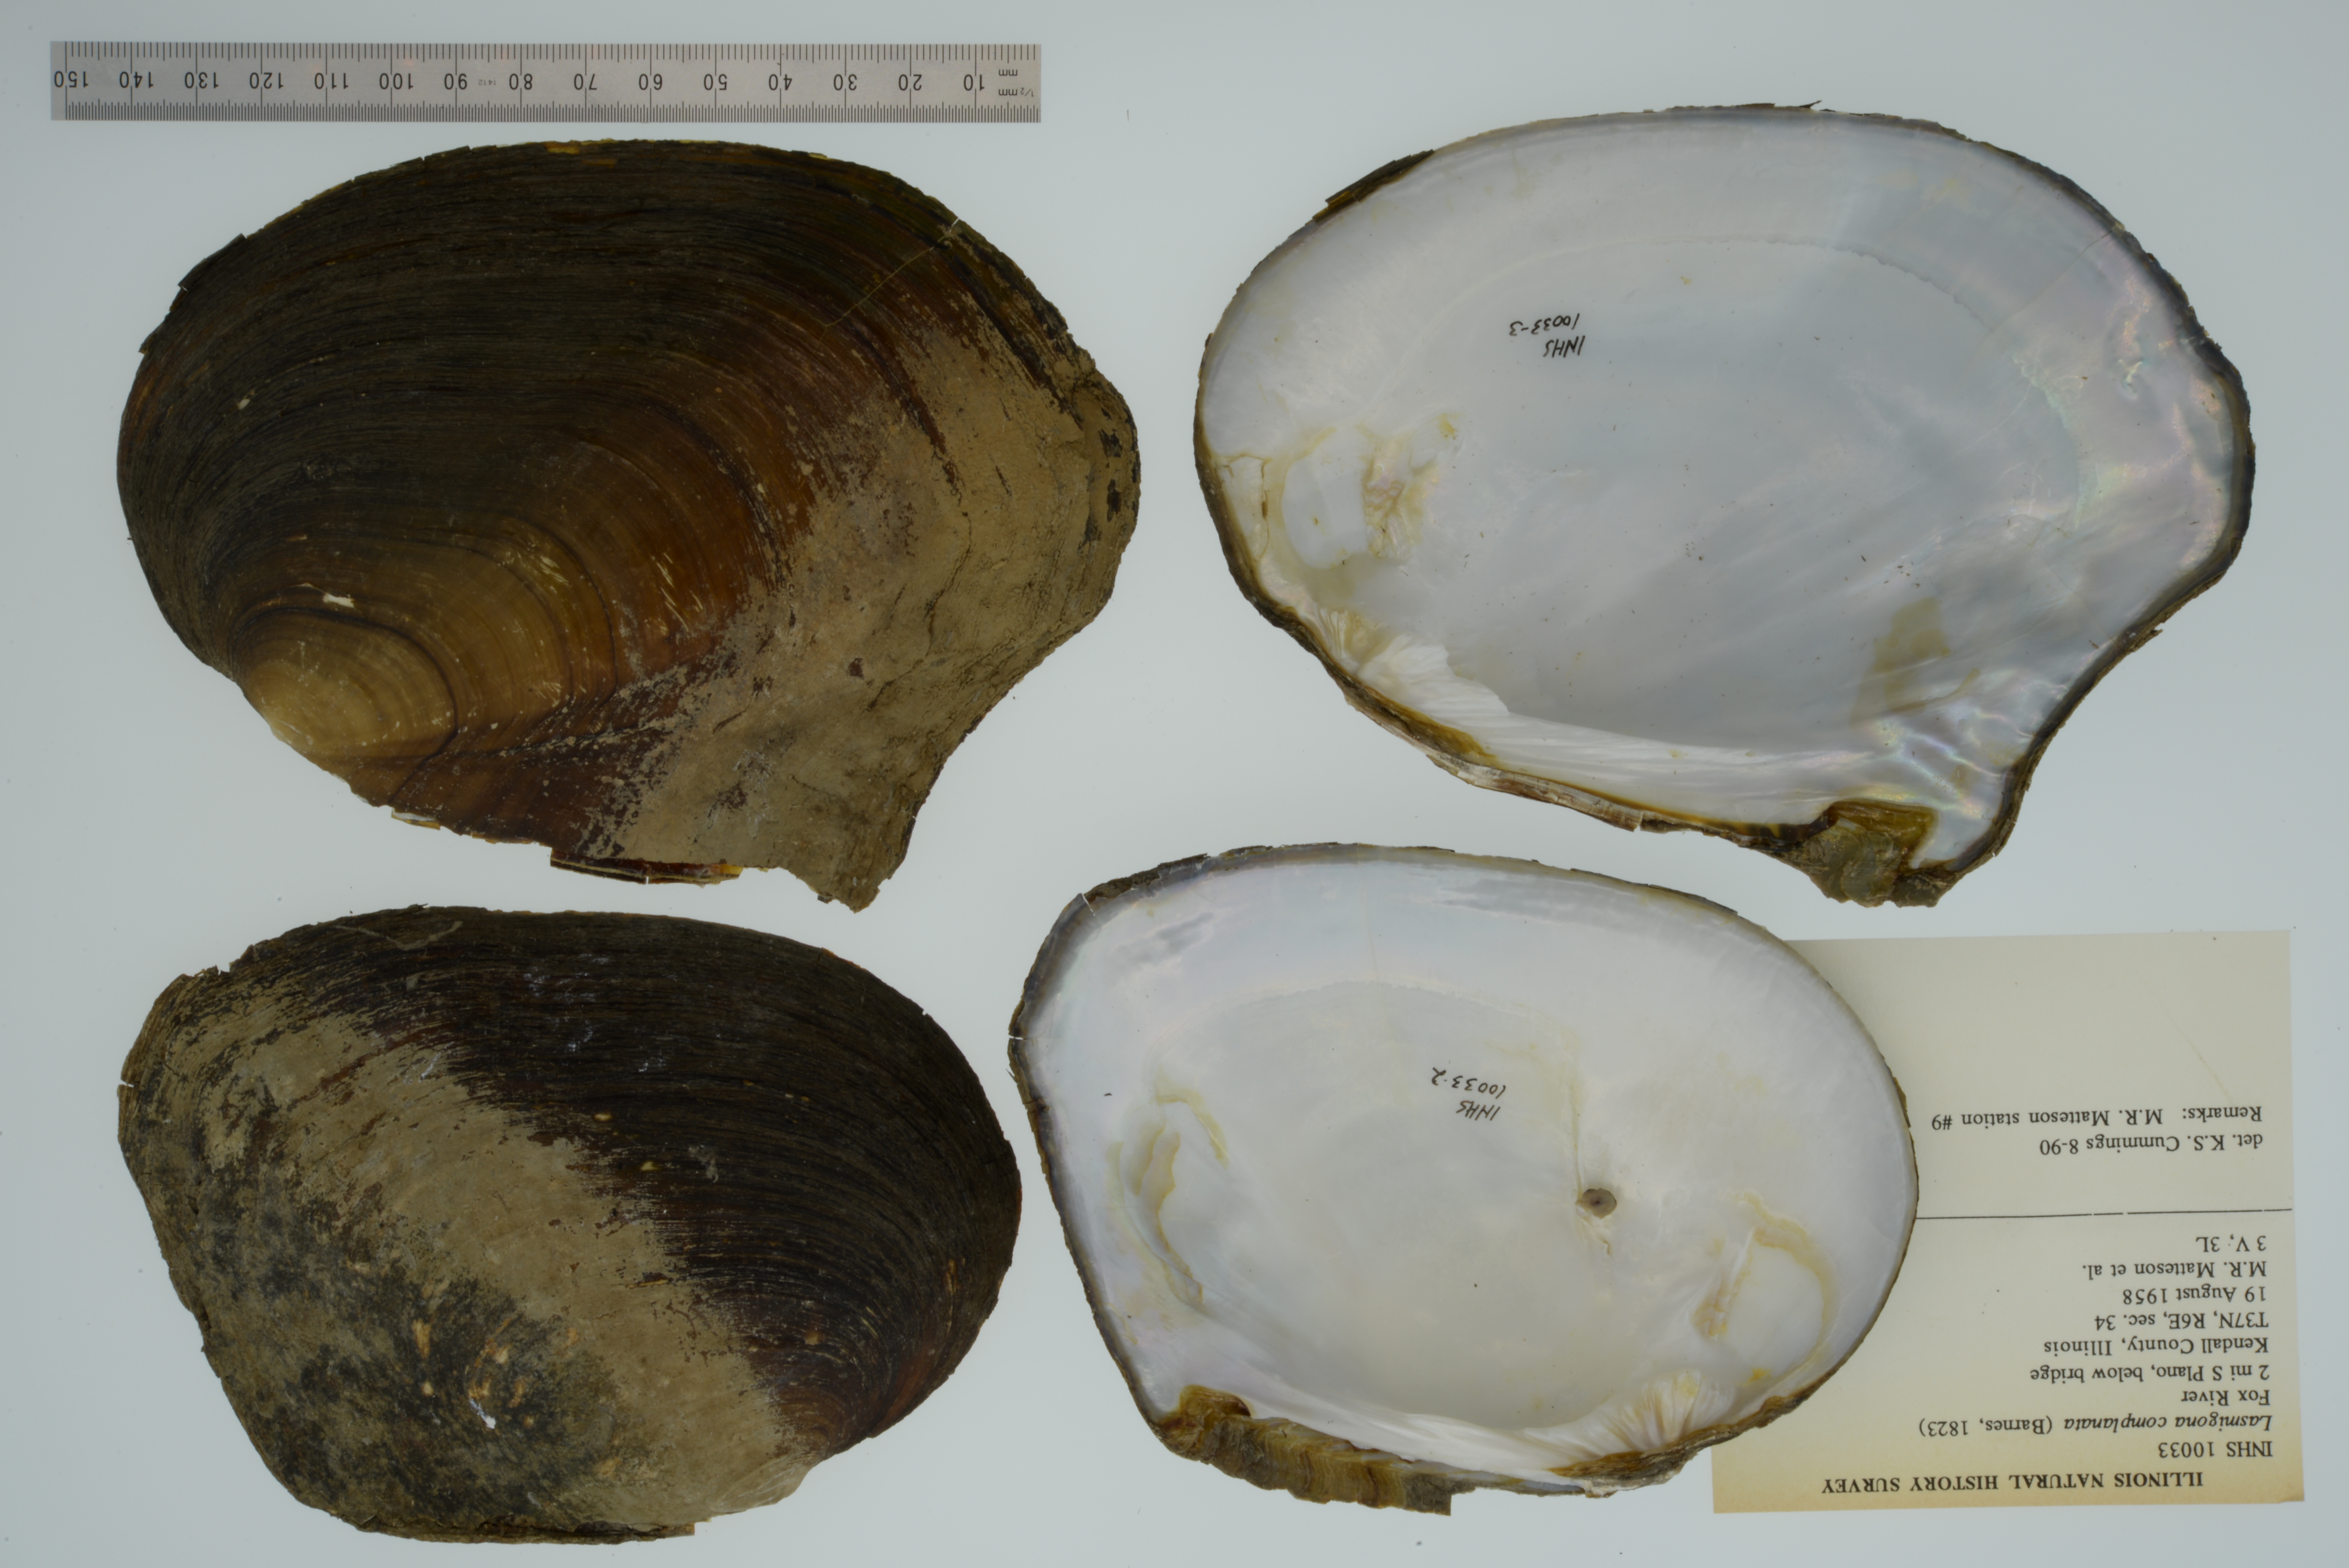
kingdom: Animalia
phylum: Mollusca
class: Bivalvia
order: Unionida
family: Unionidae
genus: Lasmigona
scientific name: Lasmigona complanata
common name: White heelsplitter
